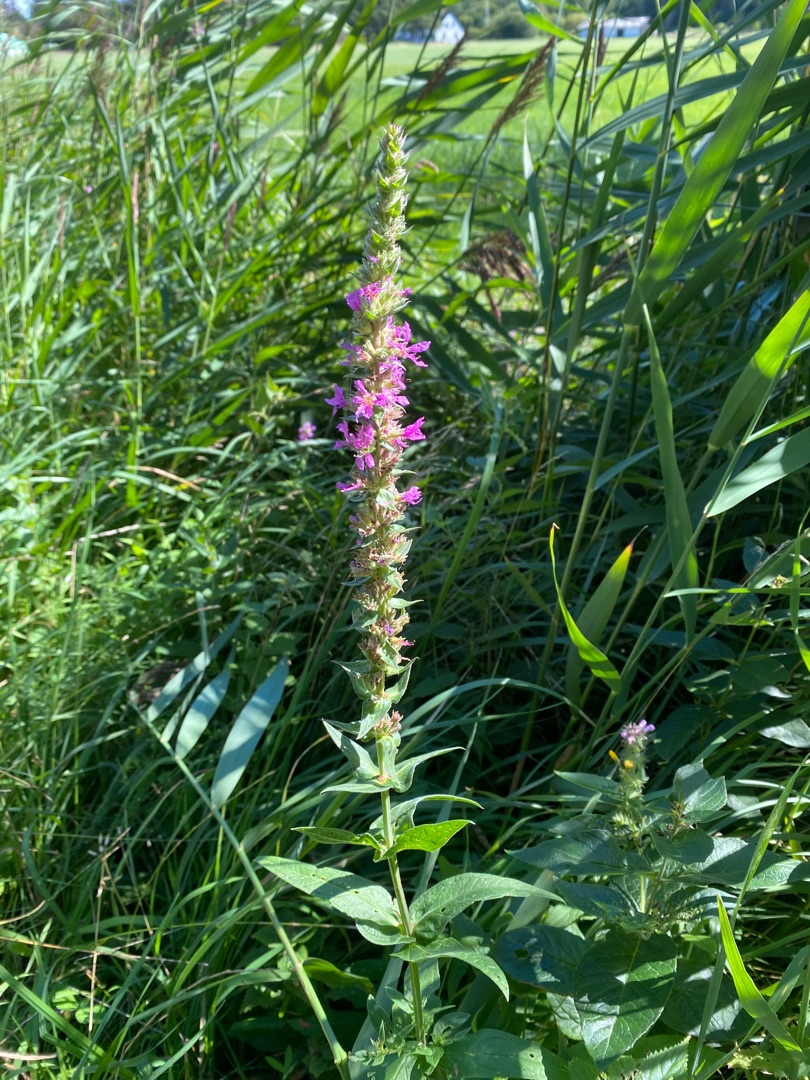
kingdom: Plantae
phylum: Tracheophyta
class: Magnoliopsida
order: Myrtales
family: Lythraceae
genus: Lythrum
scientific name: Lythrum salicaria
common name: Kattehale
